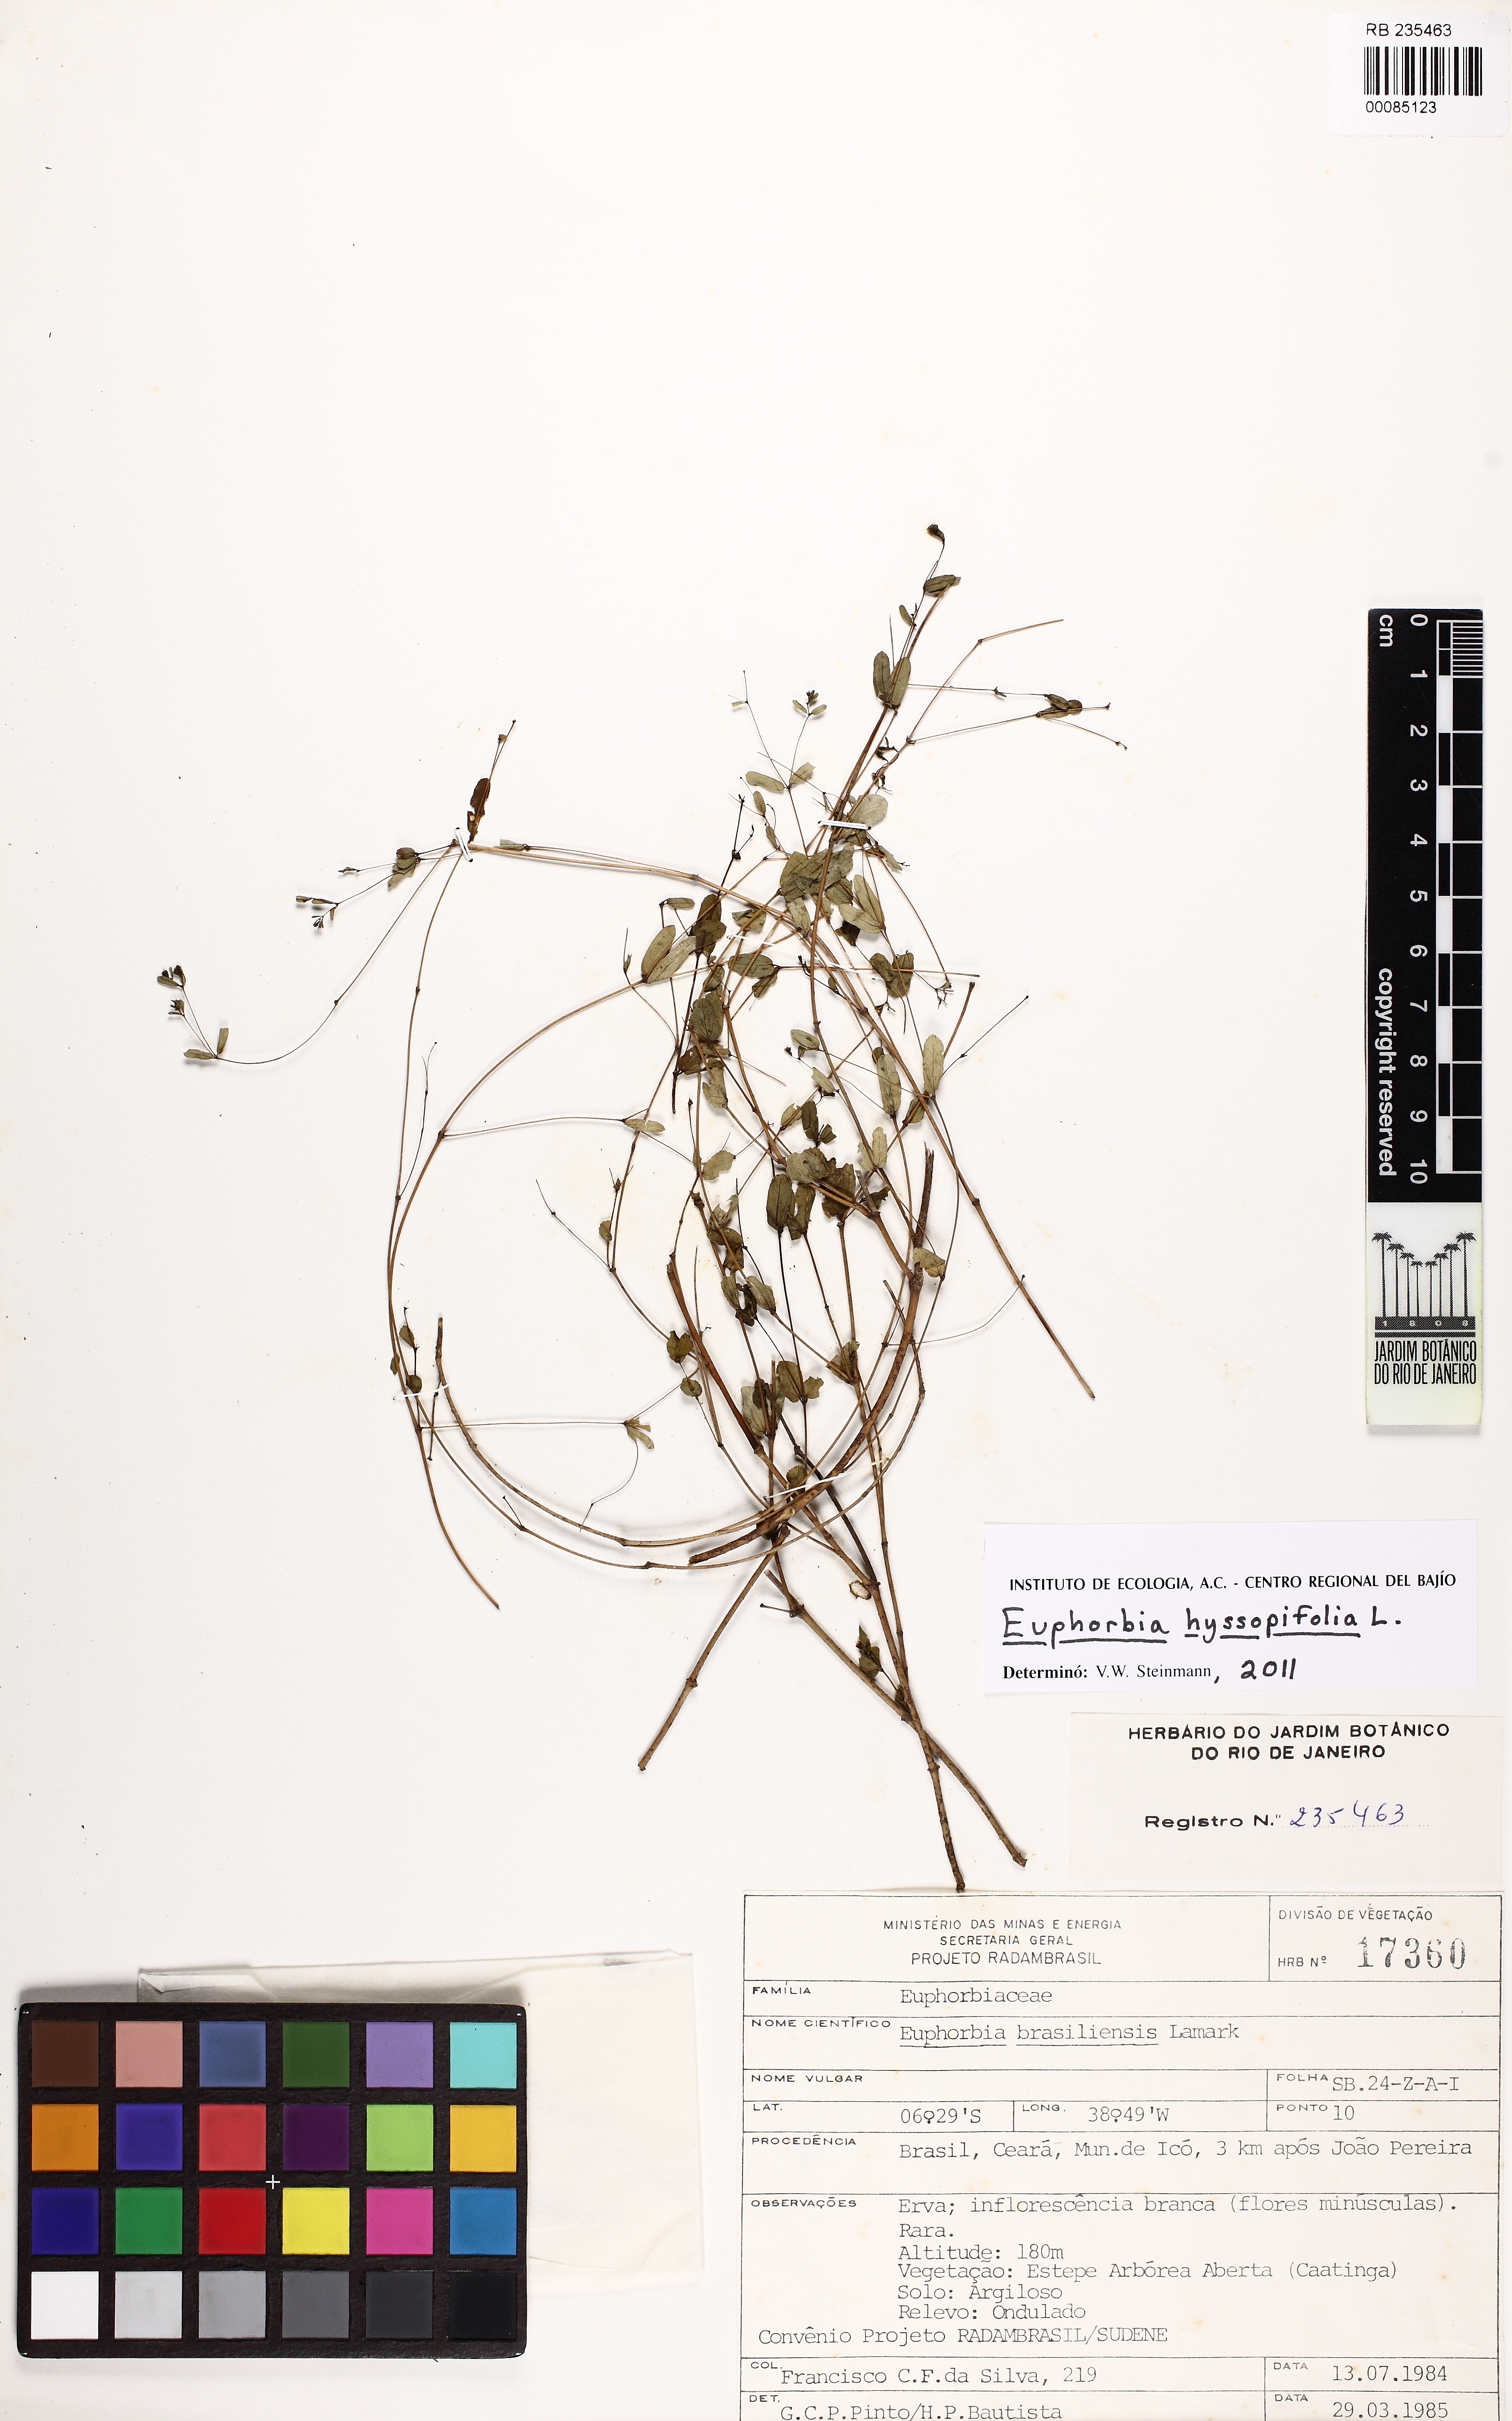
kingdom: Plantae
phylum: Tracheophyta
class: Magnoliopsida
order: Malpighiales
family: Euphorbiaceae
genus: Euphorbia
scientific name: Euphorbia hyssopifolia
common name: Hyssopleaf sandmat
